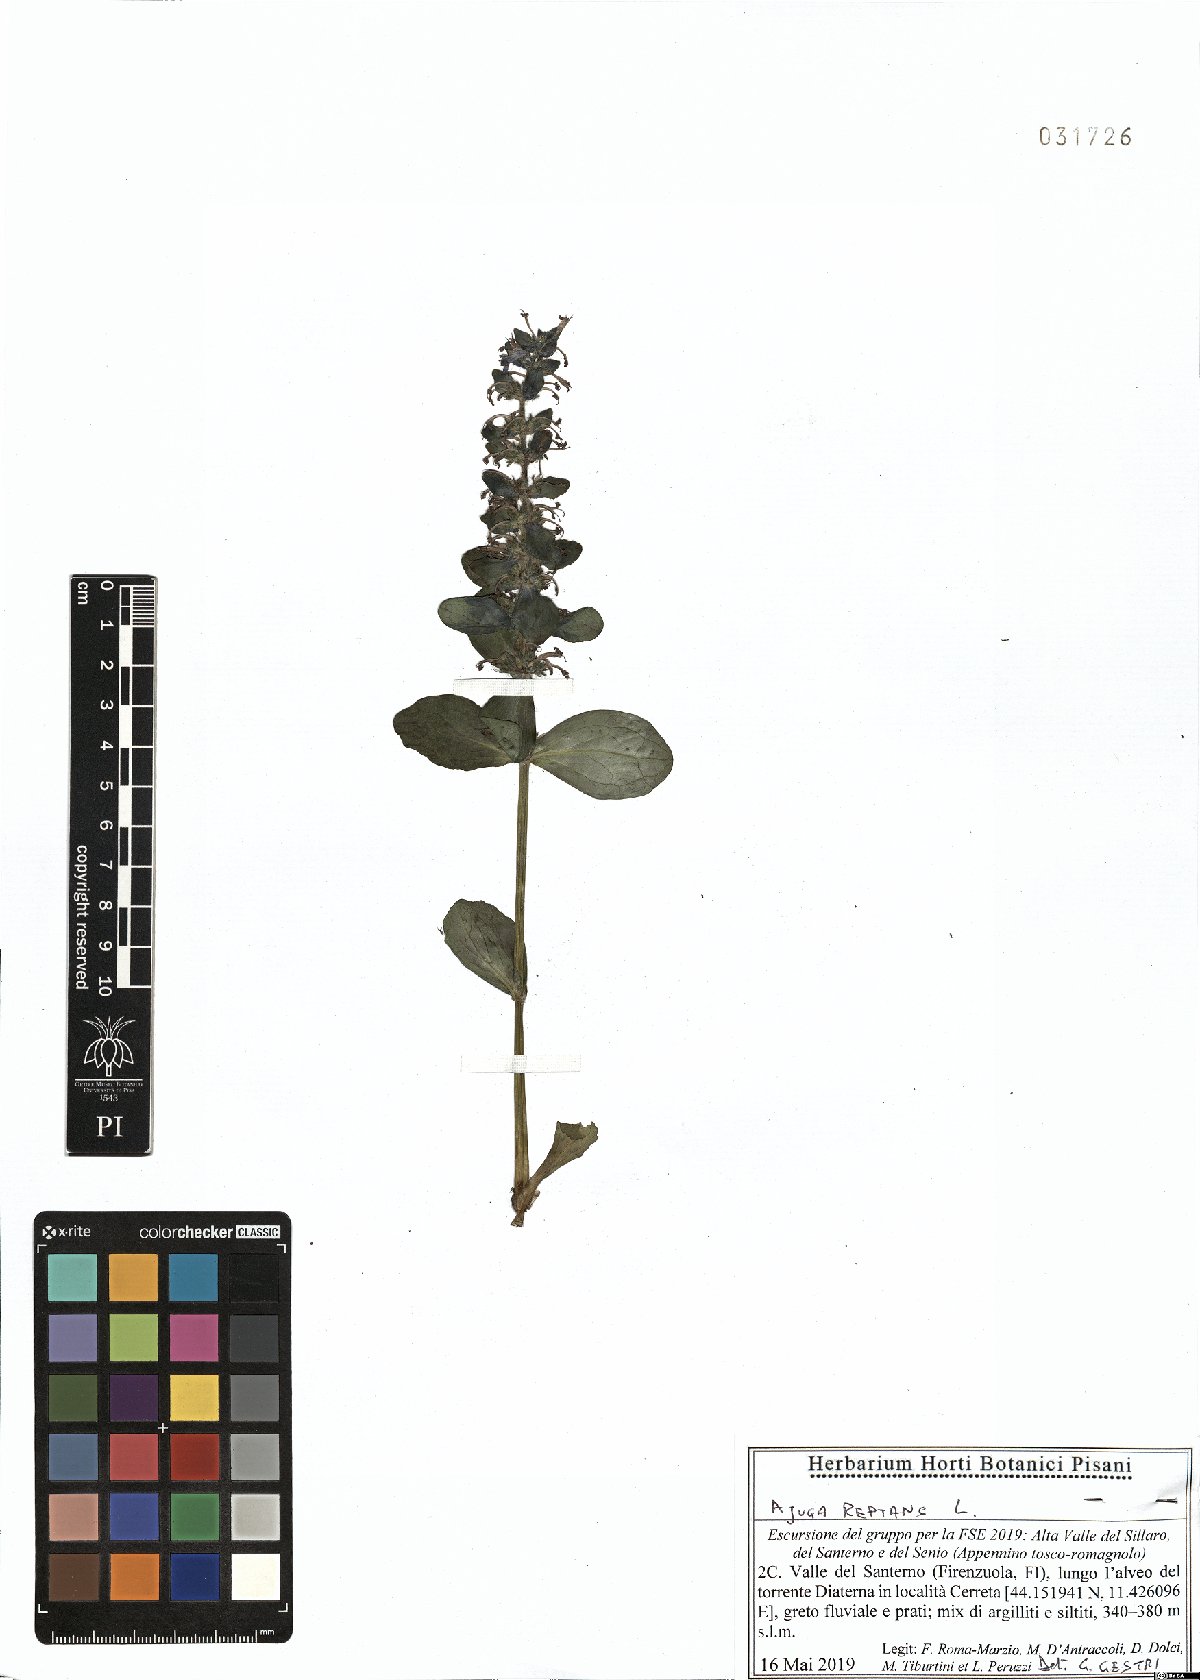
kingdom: Plantae
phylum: Tracheophyta
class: Magnoliopsida
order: Lamiales
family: Lamiaceae
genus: Ajuga
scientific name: Ajuga reptans
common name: Bugle
